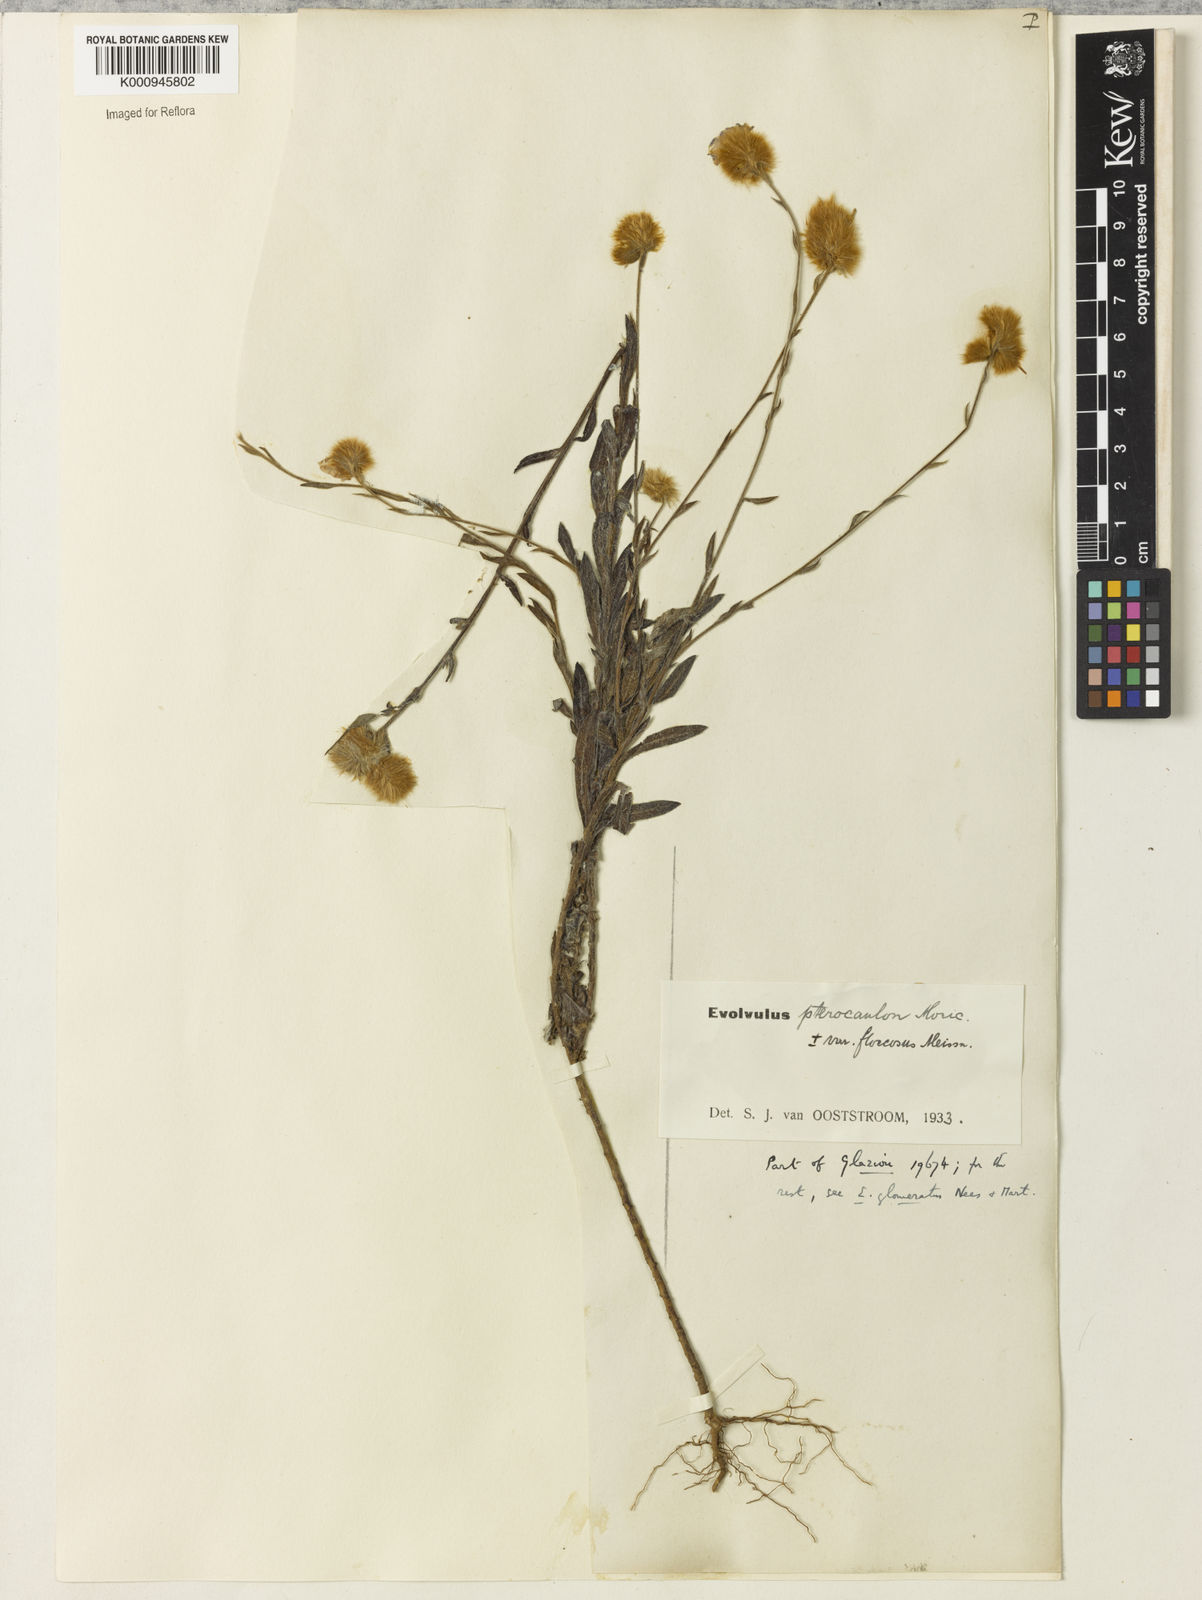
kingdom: Plantae
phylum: Tracheophyta
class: Magnoliopsida
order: Solanales
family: Convolvulaceae
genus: Evolvulus
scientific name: Evolvulus pterocaulon
